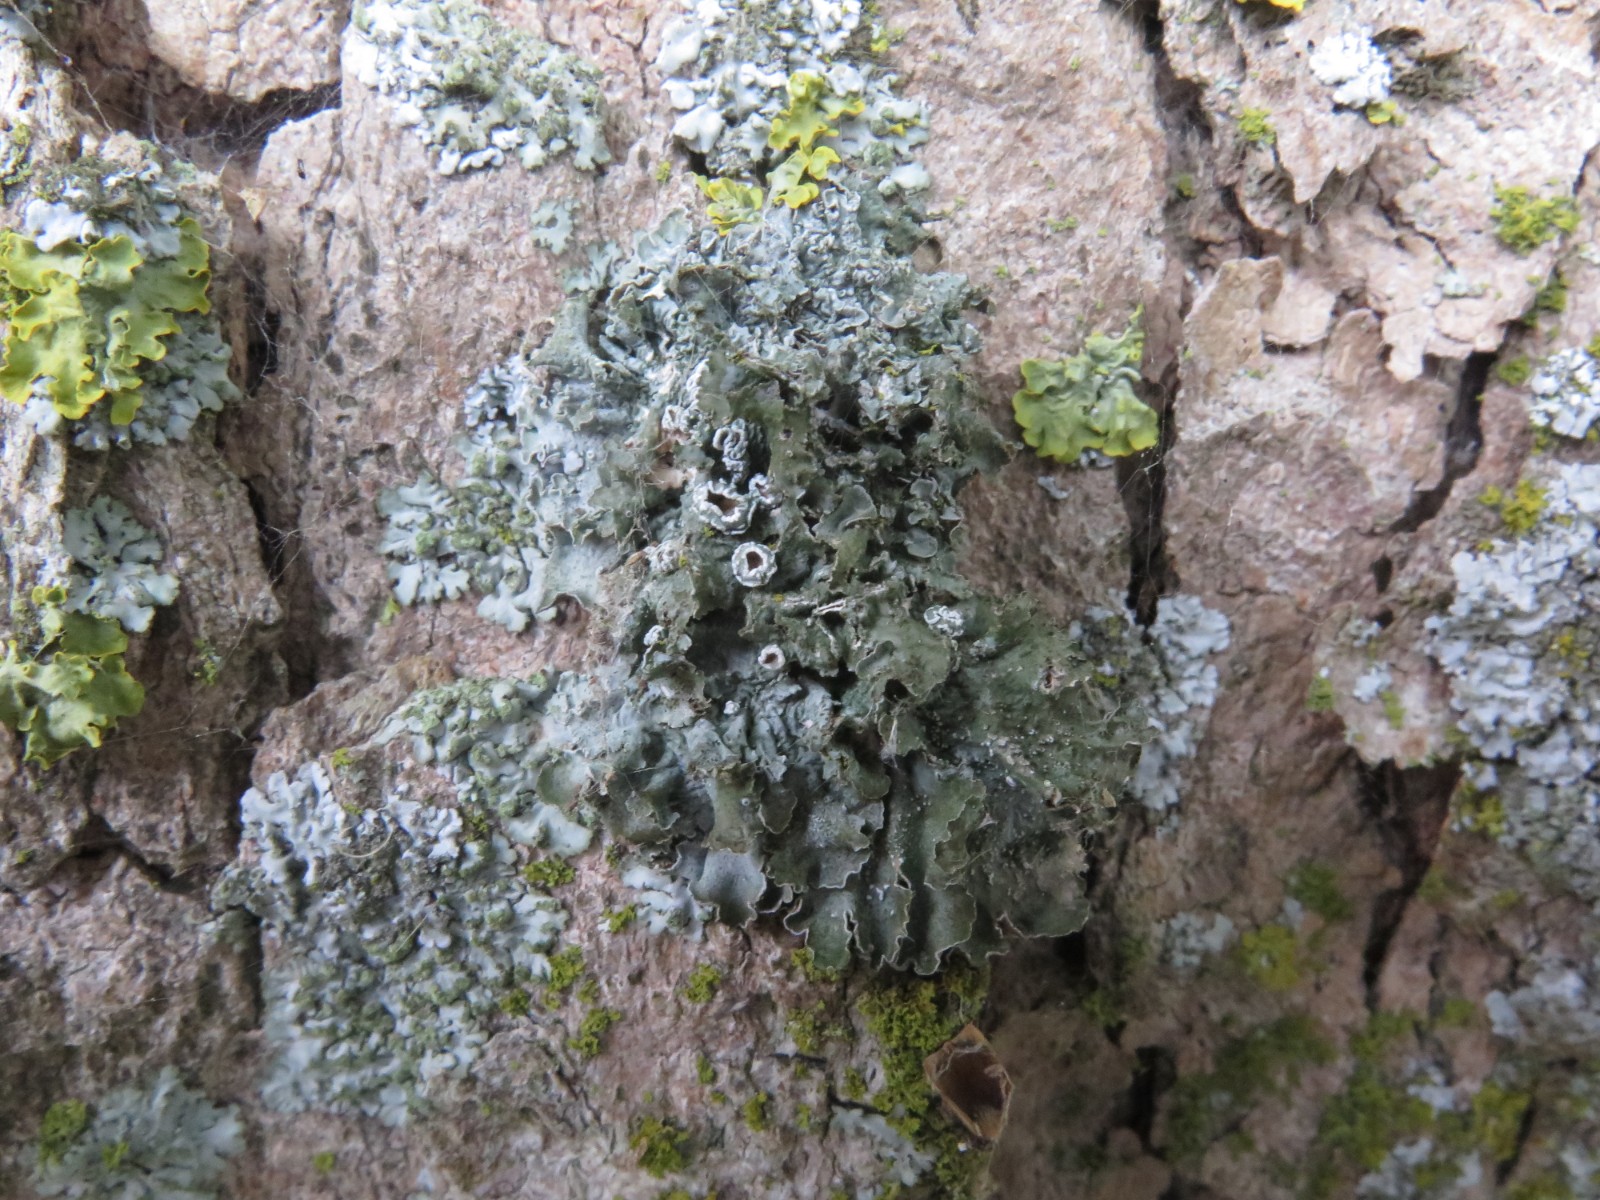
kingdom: Fungi
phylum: Ascomycota
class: Lecanoromycetes
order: Lecanorales
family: Parmeliaceae
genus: Pleurosticta
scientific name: Pleurosticta acetabulum
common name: stor skållav
